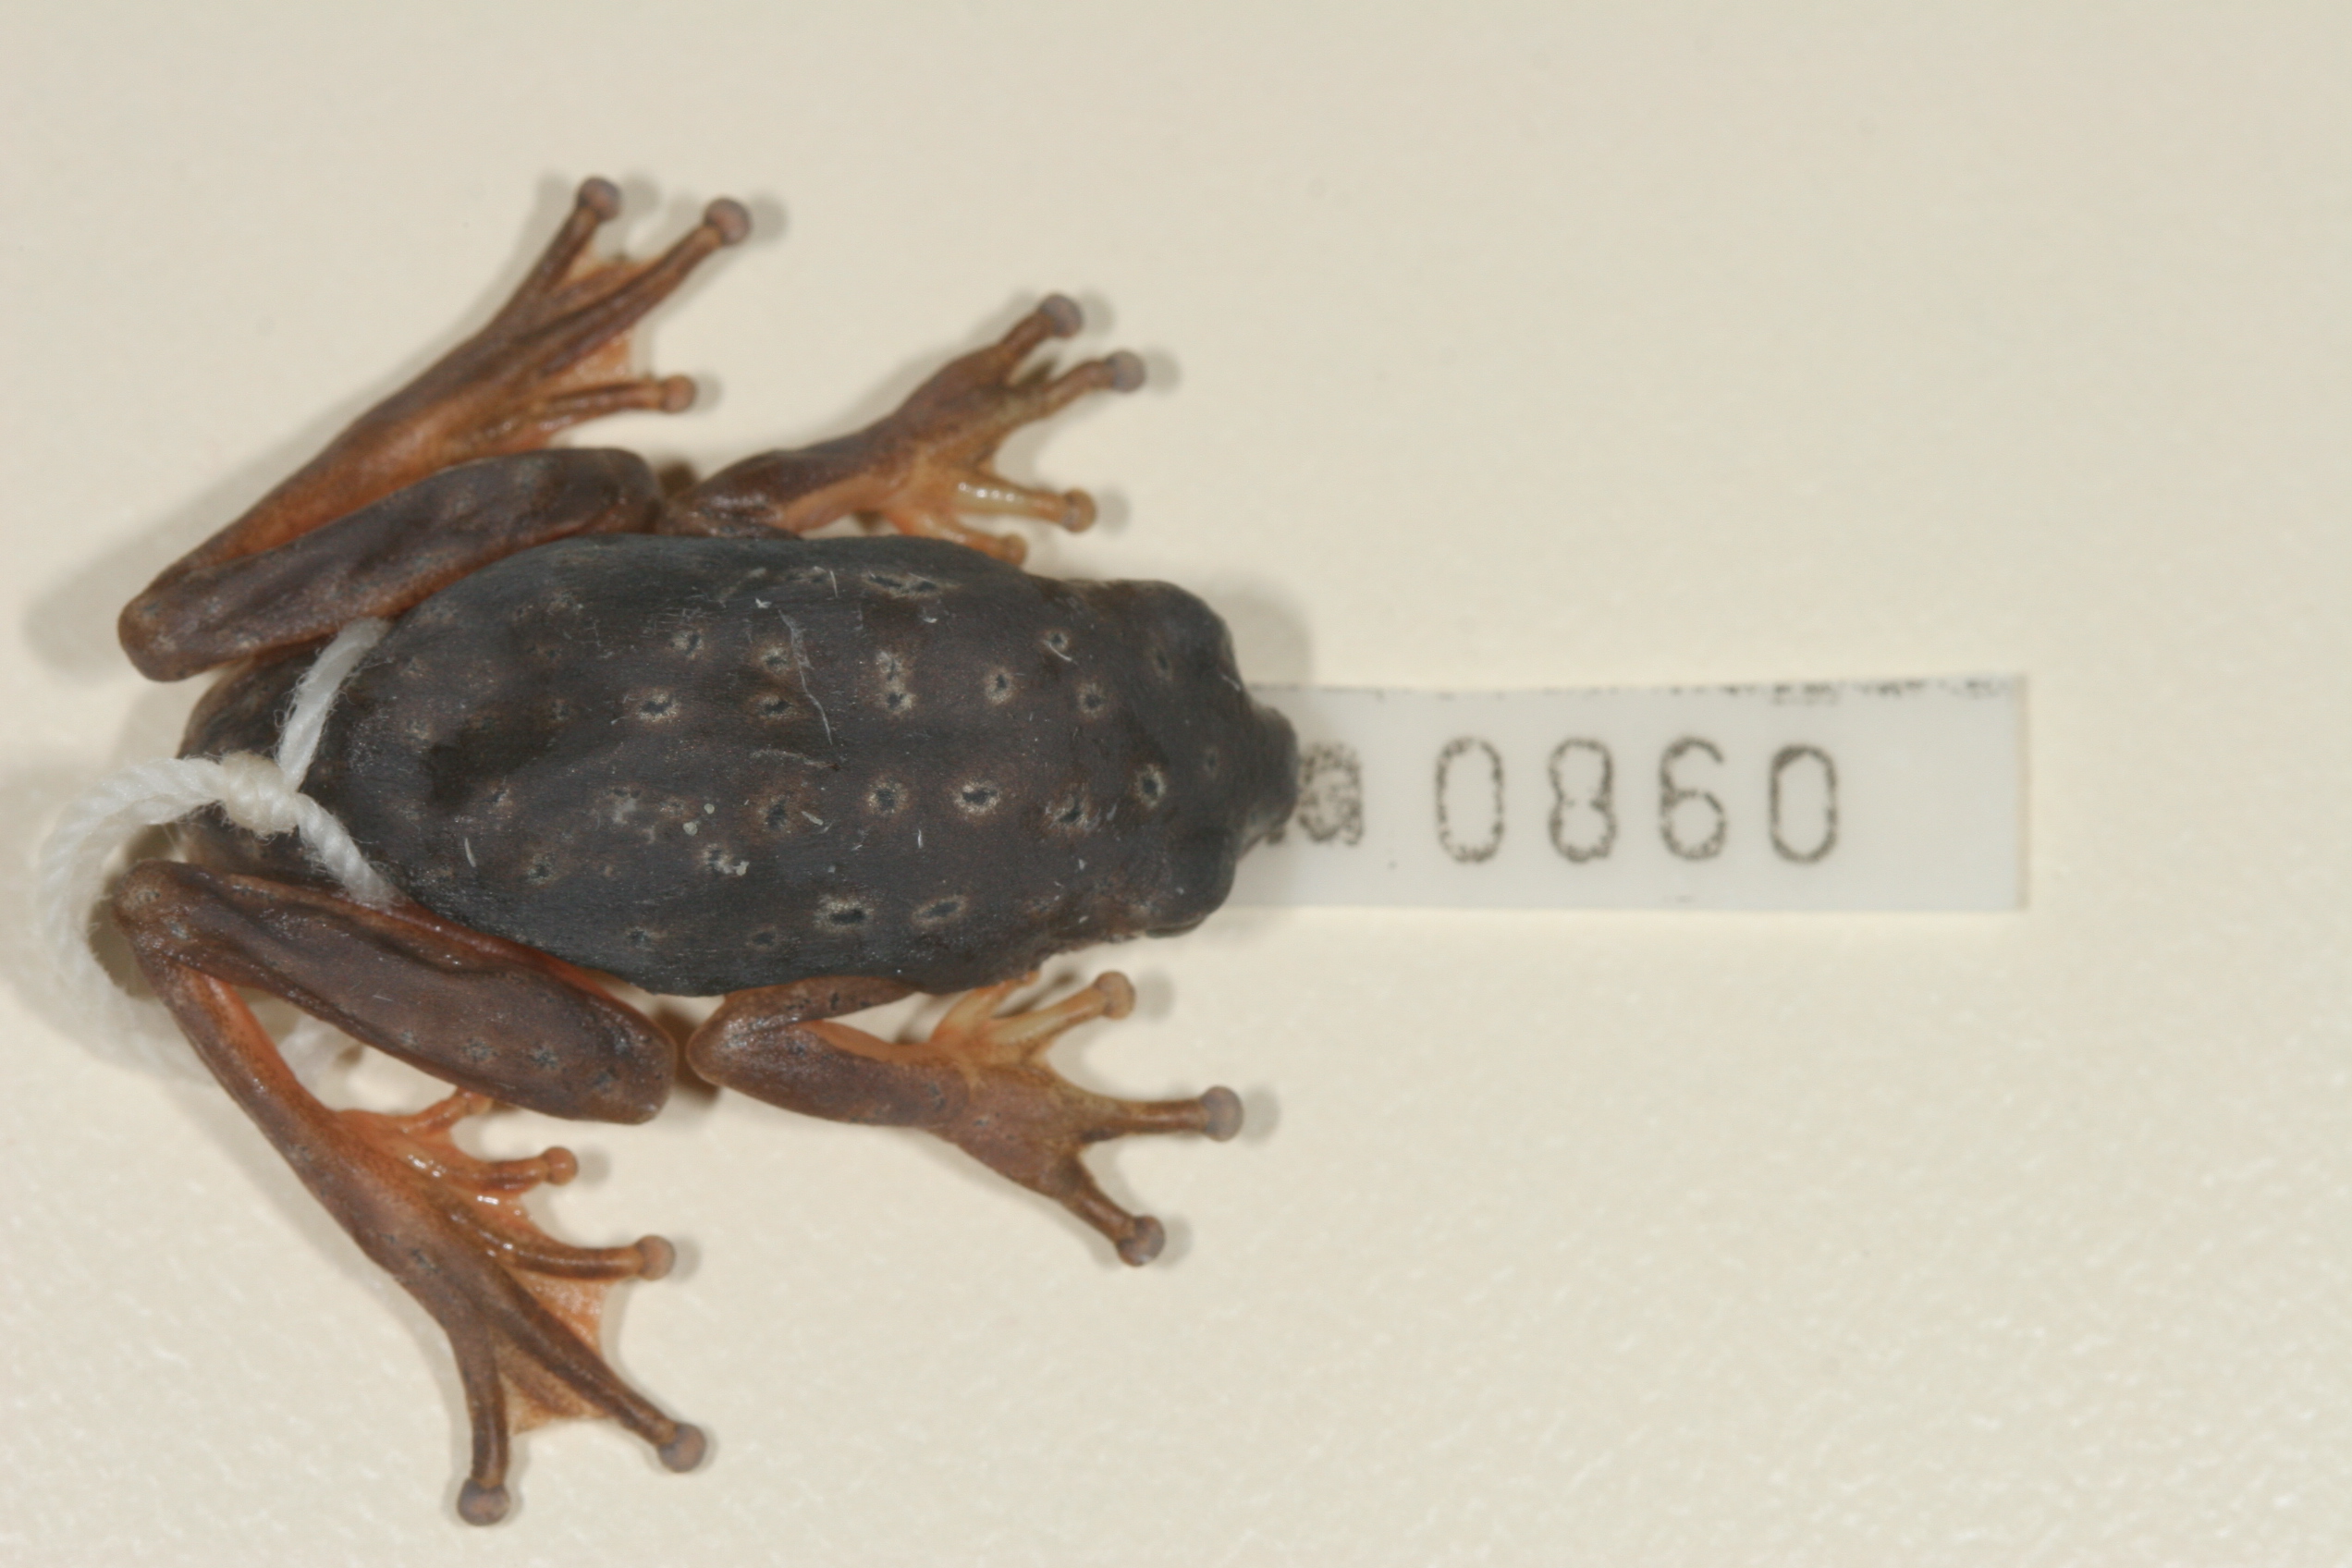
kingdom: Animalia
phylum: Chordata
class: Amphibia
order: Anura
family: Hyperoliidae
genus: Hyperolius
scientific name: Hyperolius viridiflavus
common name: Common reed frog
